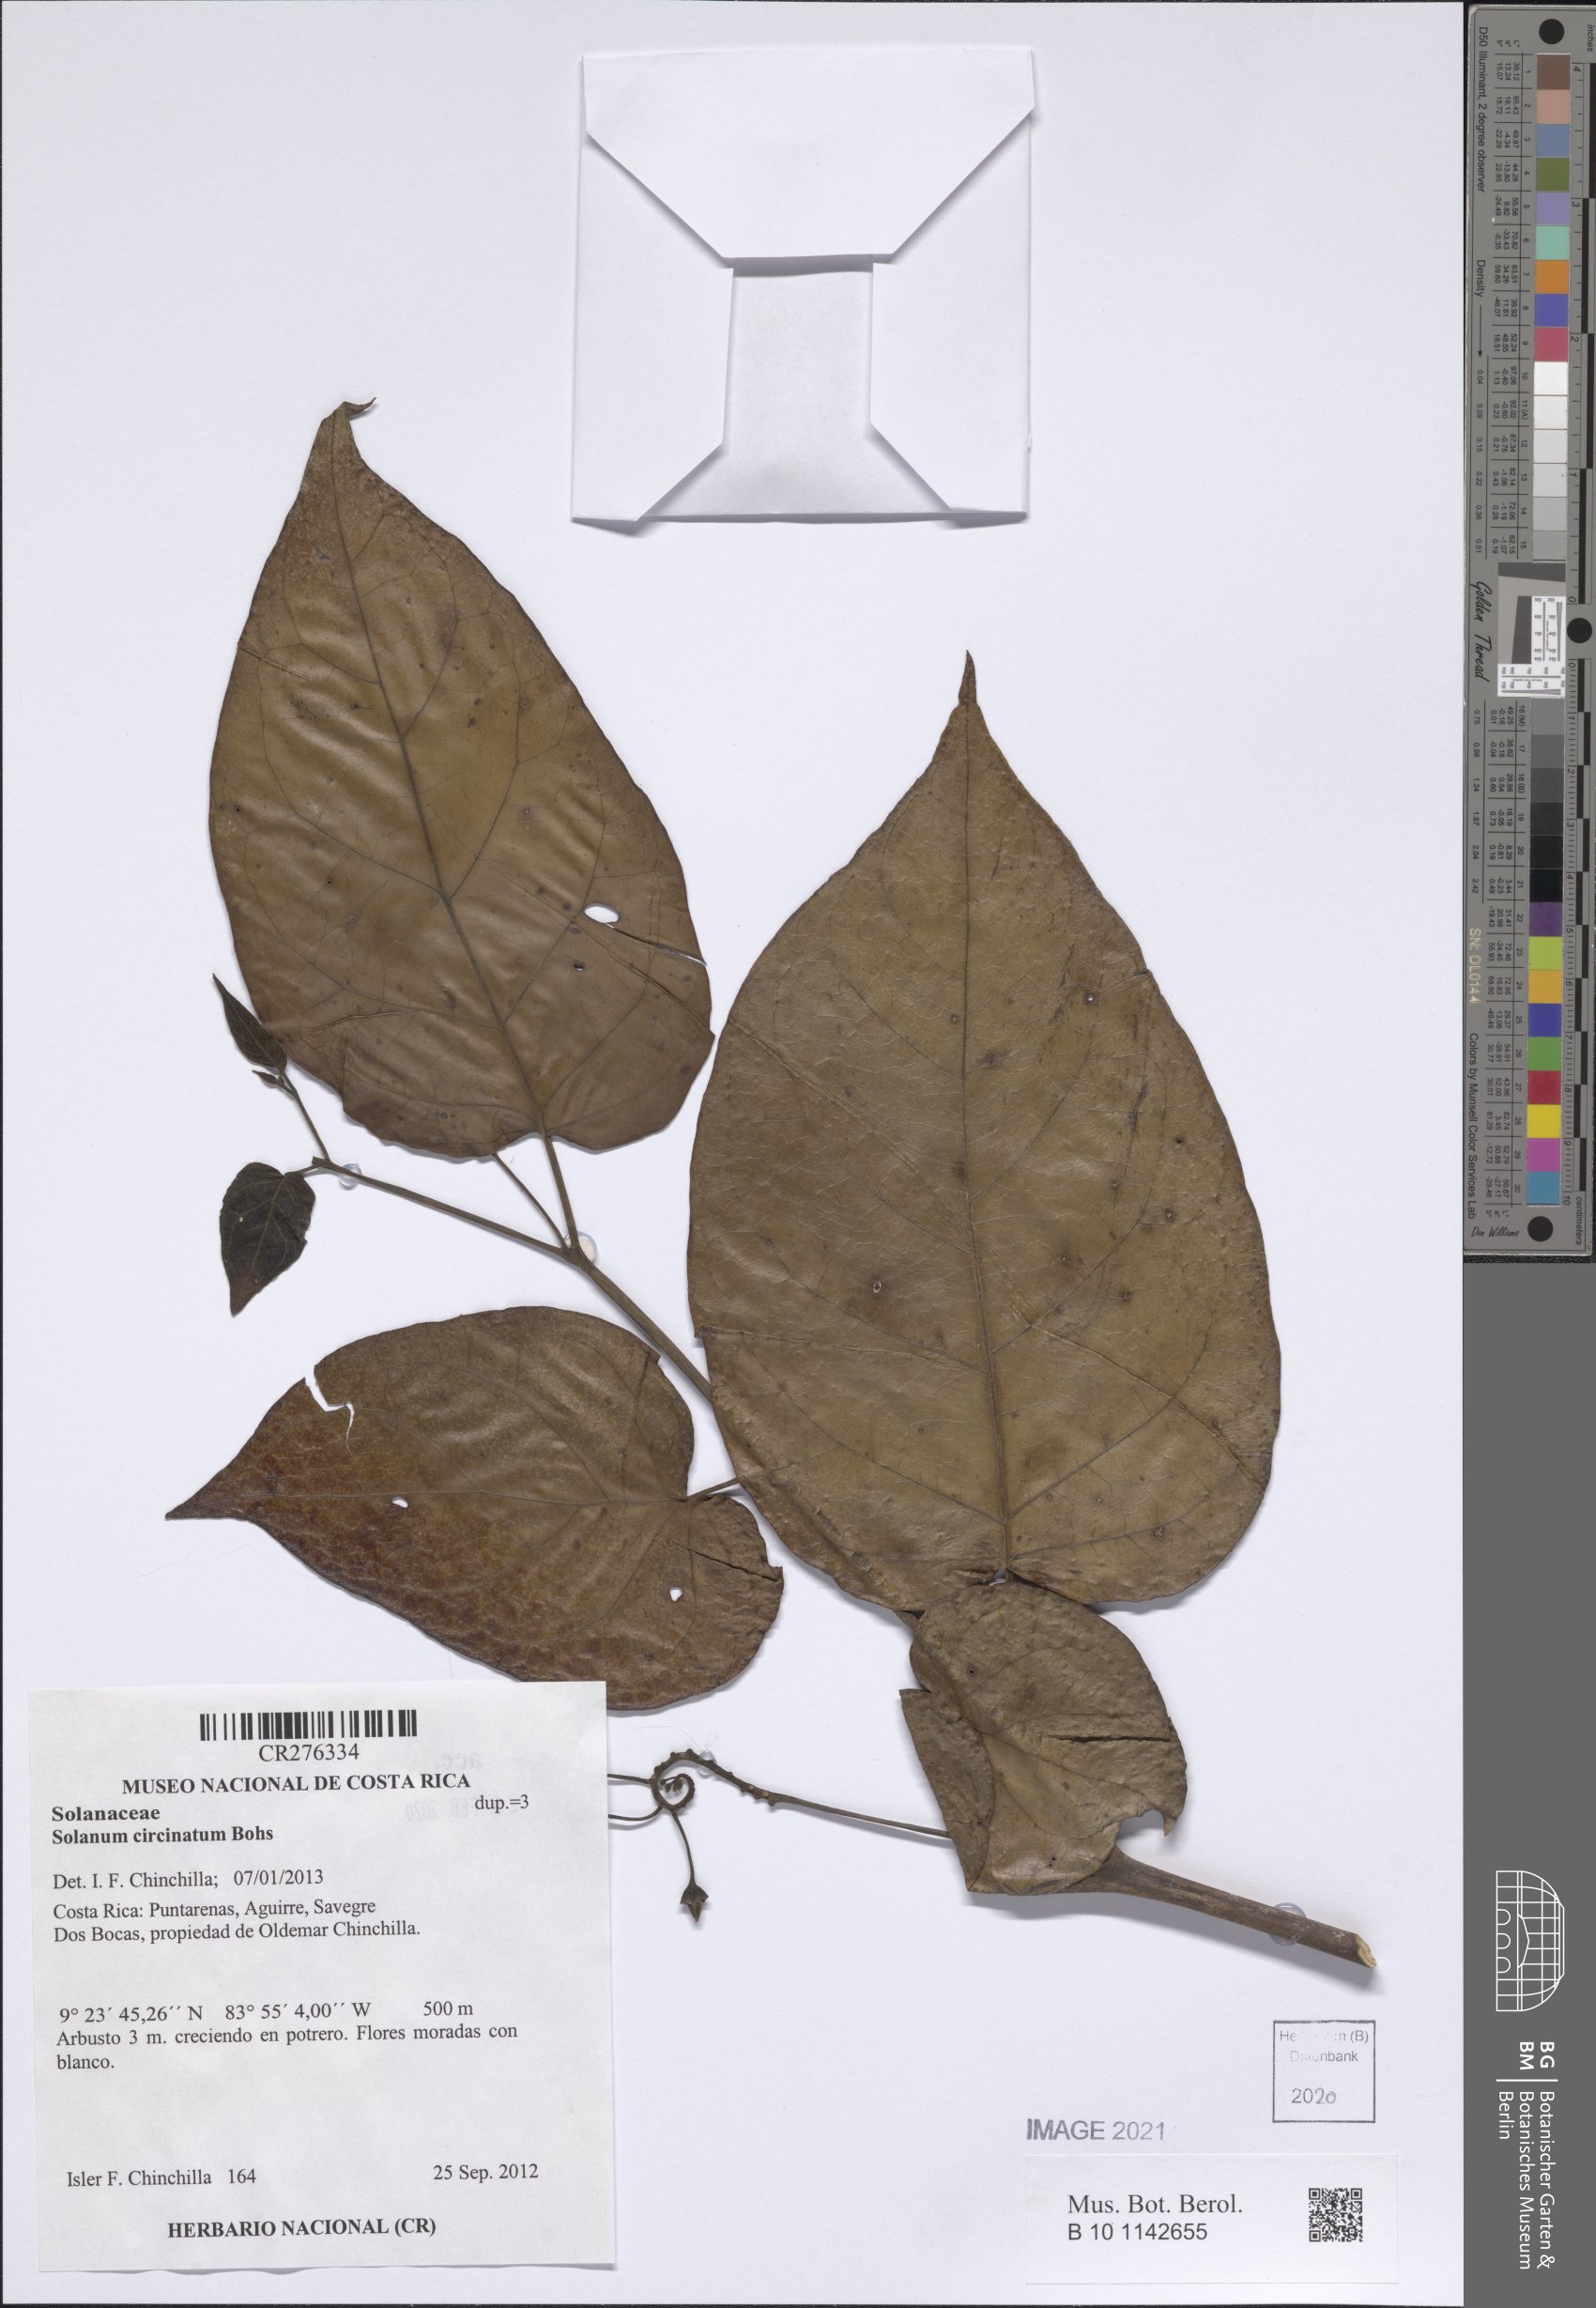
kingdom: Plantae
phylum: Tracheophyta
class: Magnoliopsida
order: Solanales
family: Solanaceae
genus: Solanum
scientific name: Solanum splendens
